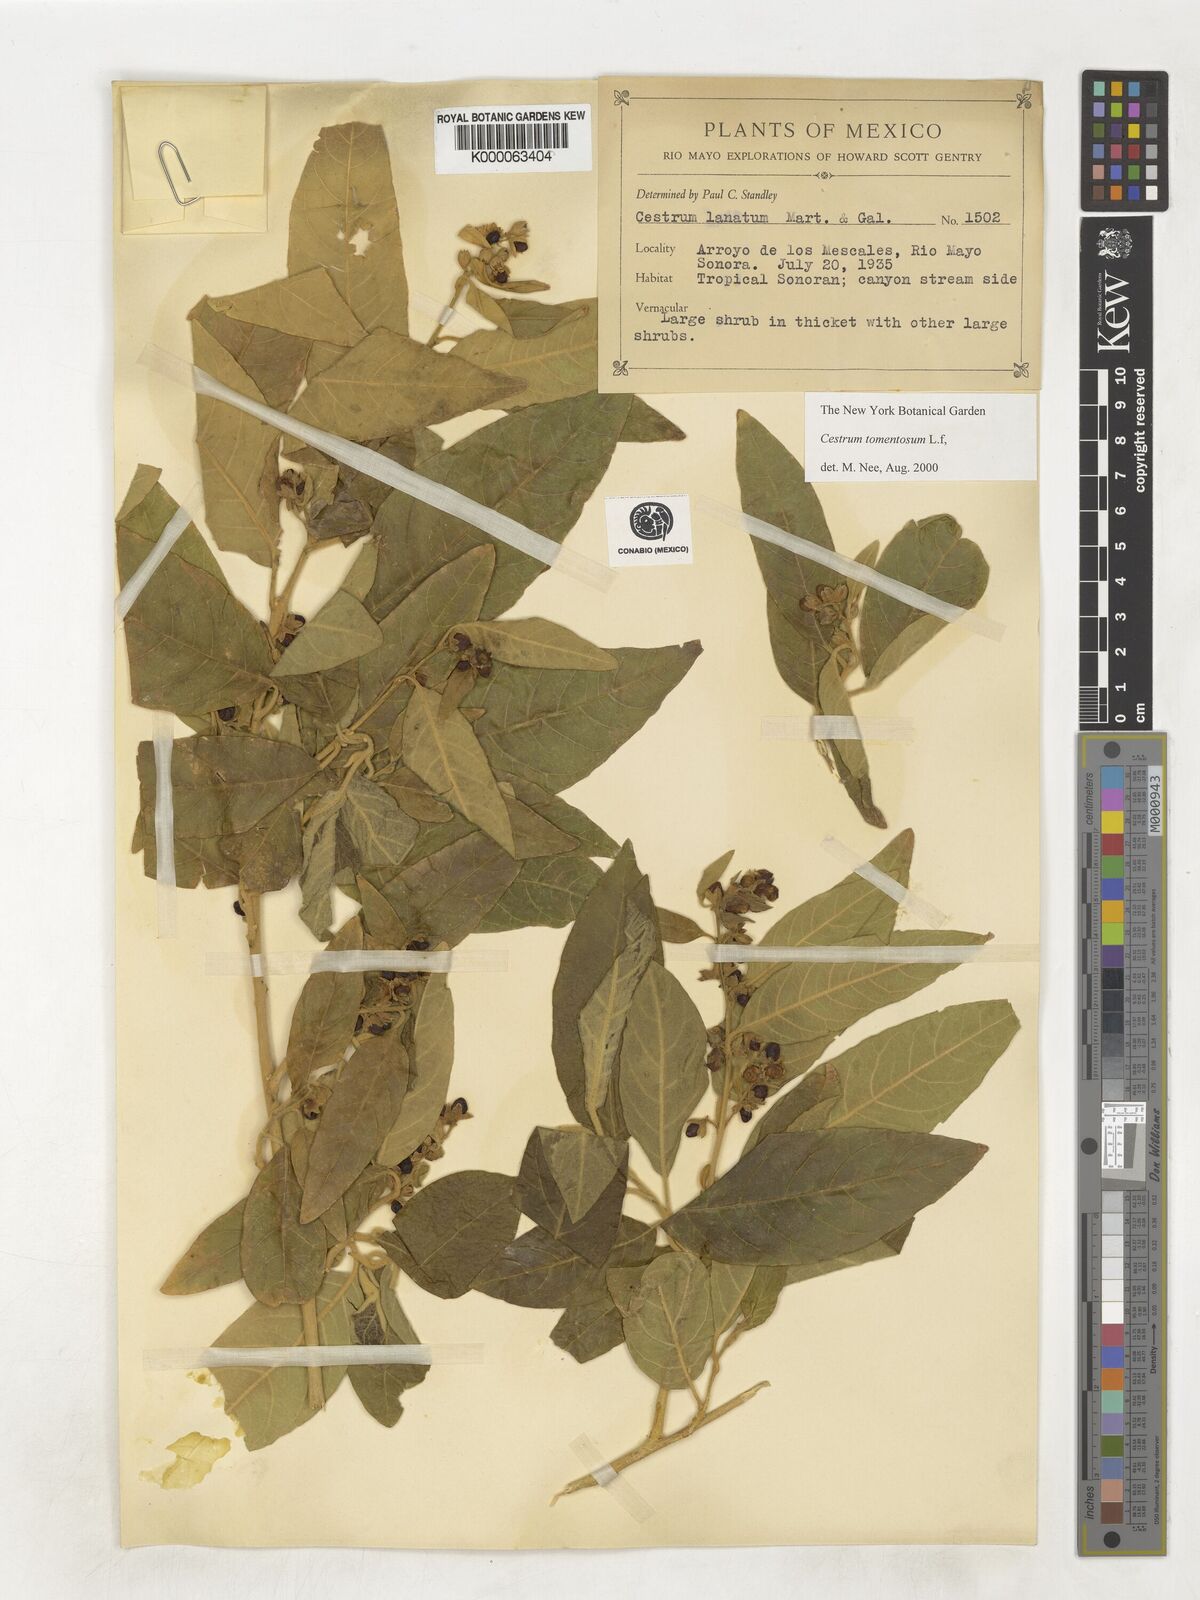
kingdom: Plantae
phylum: Tracheophyta
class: Magnoliopsida
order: Solanales
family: Solanaceae
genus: Cestrum
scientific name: Cestrum tomentosum
